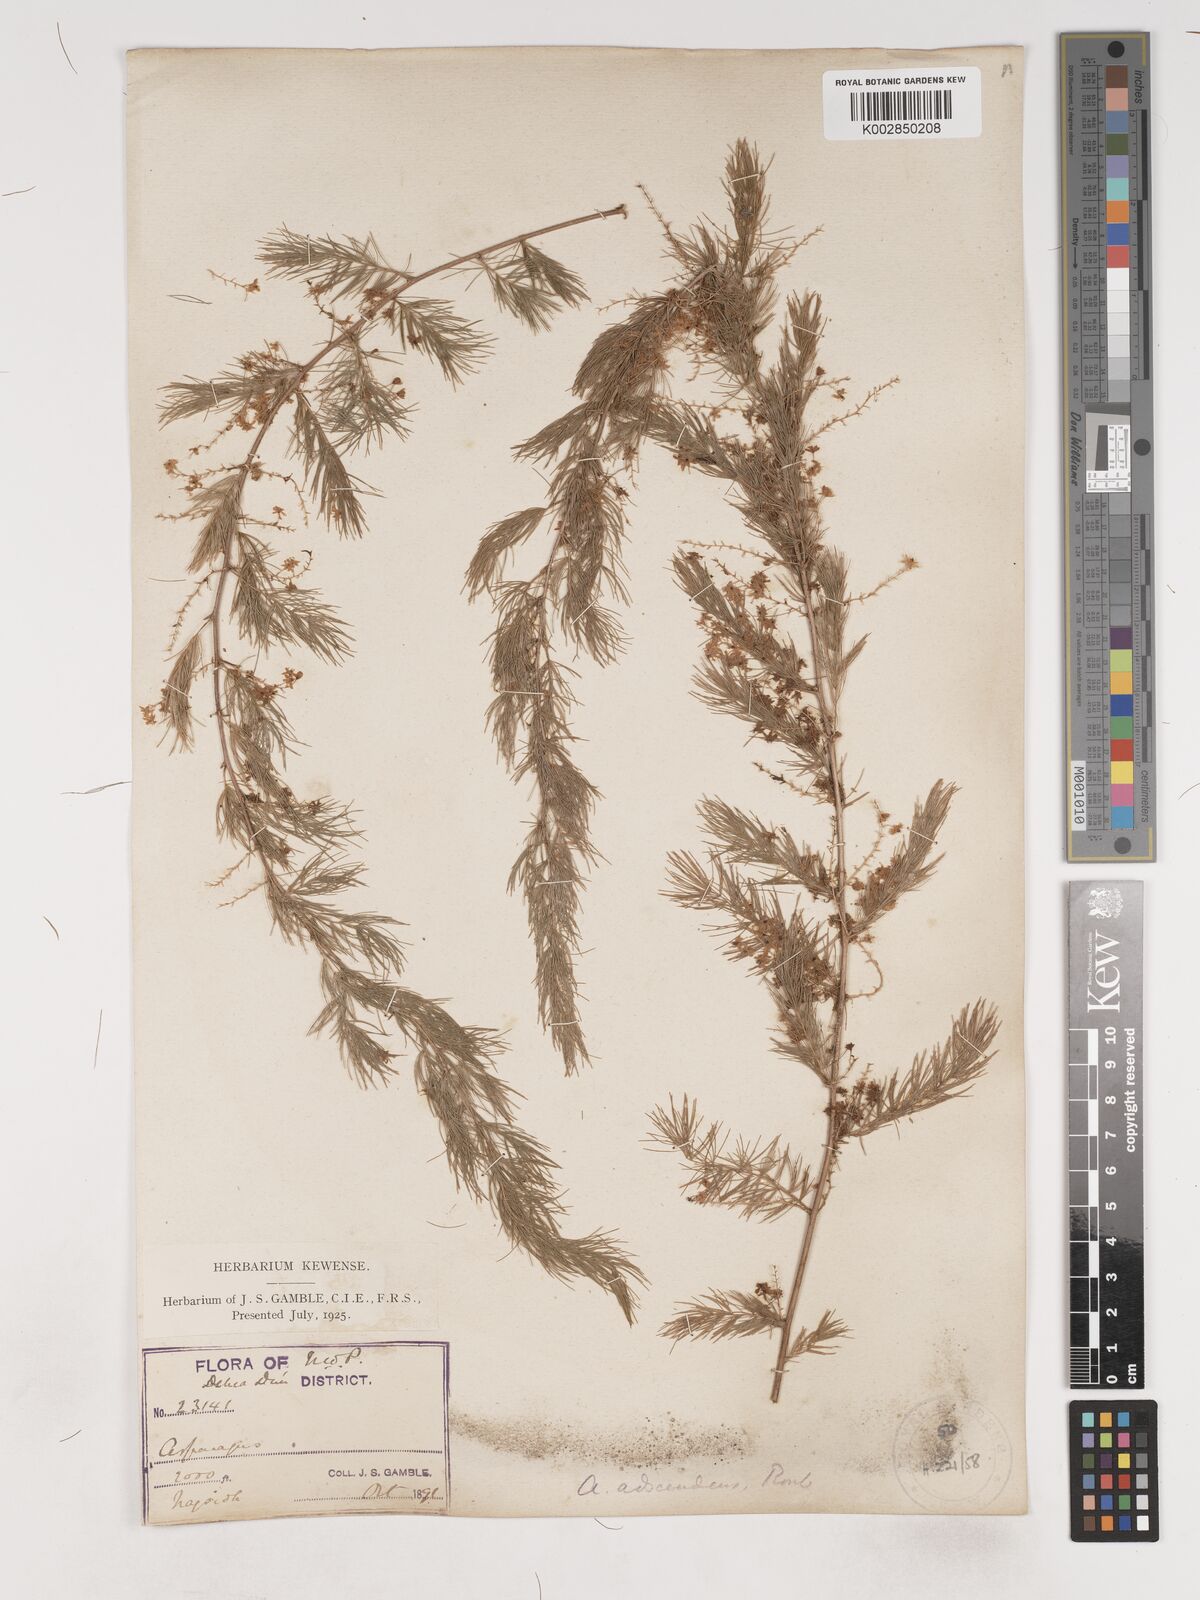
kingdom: Plantae
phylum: Tracheophyta
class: Liliopsida
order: Asparagales
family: Asparagaceae
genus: Asparagus
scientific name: Asparagus adscendens
